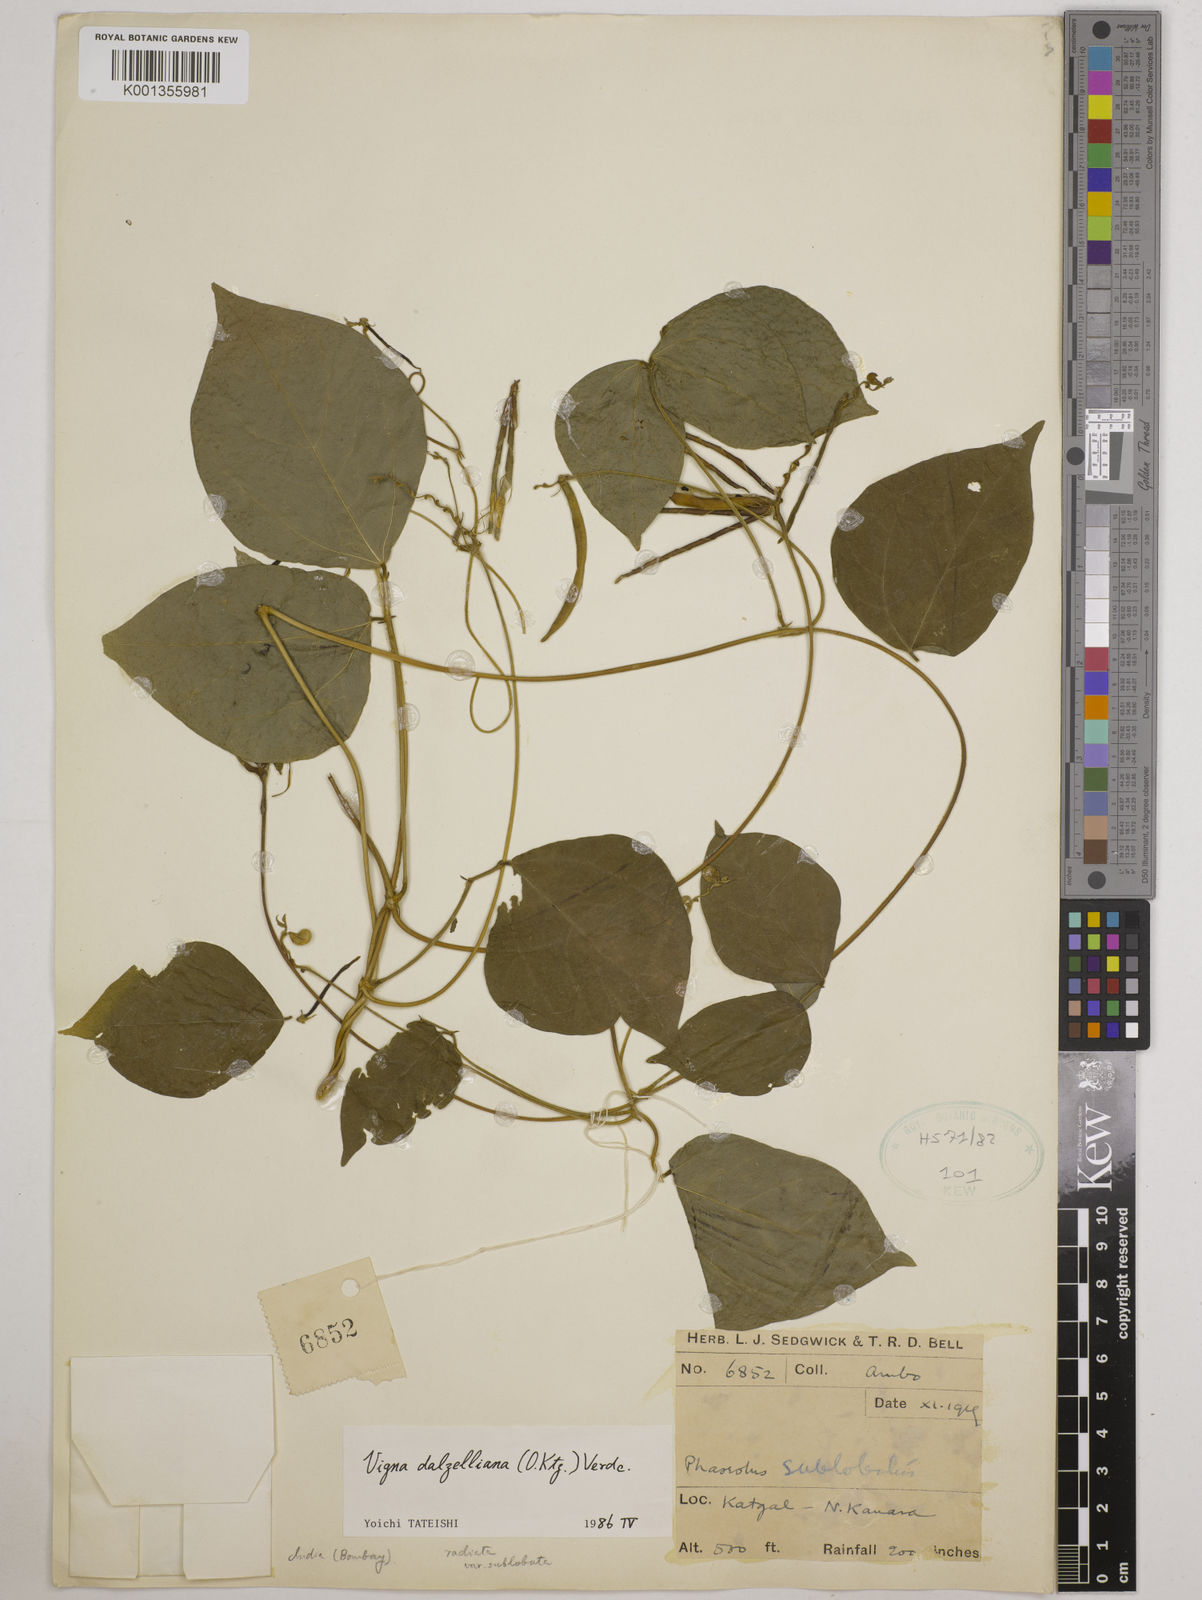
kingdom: Plantae
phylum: Tracheophyta
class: Magnoliopsida
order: Fabales
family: Fabaceae
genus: Vigna
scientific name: Vigna dalzelliana
